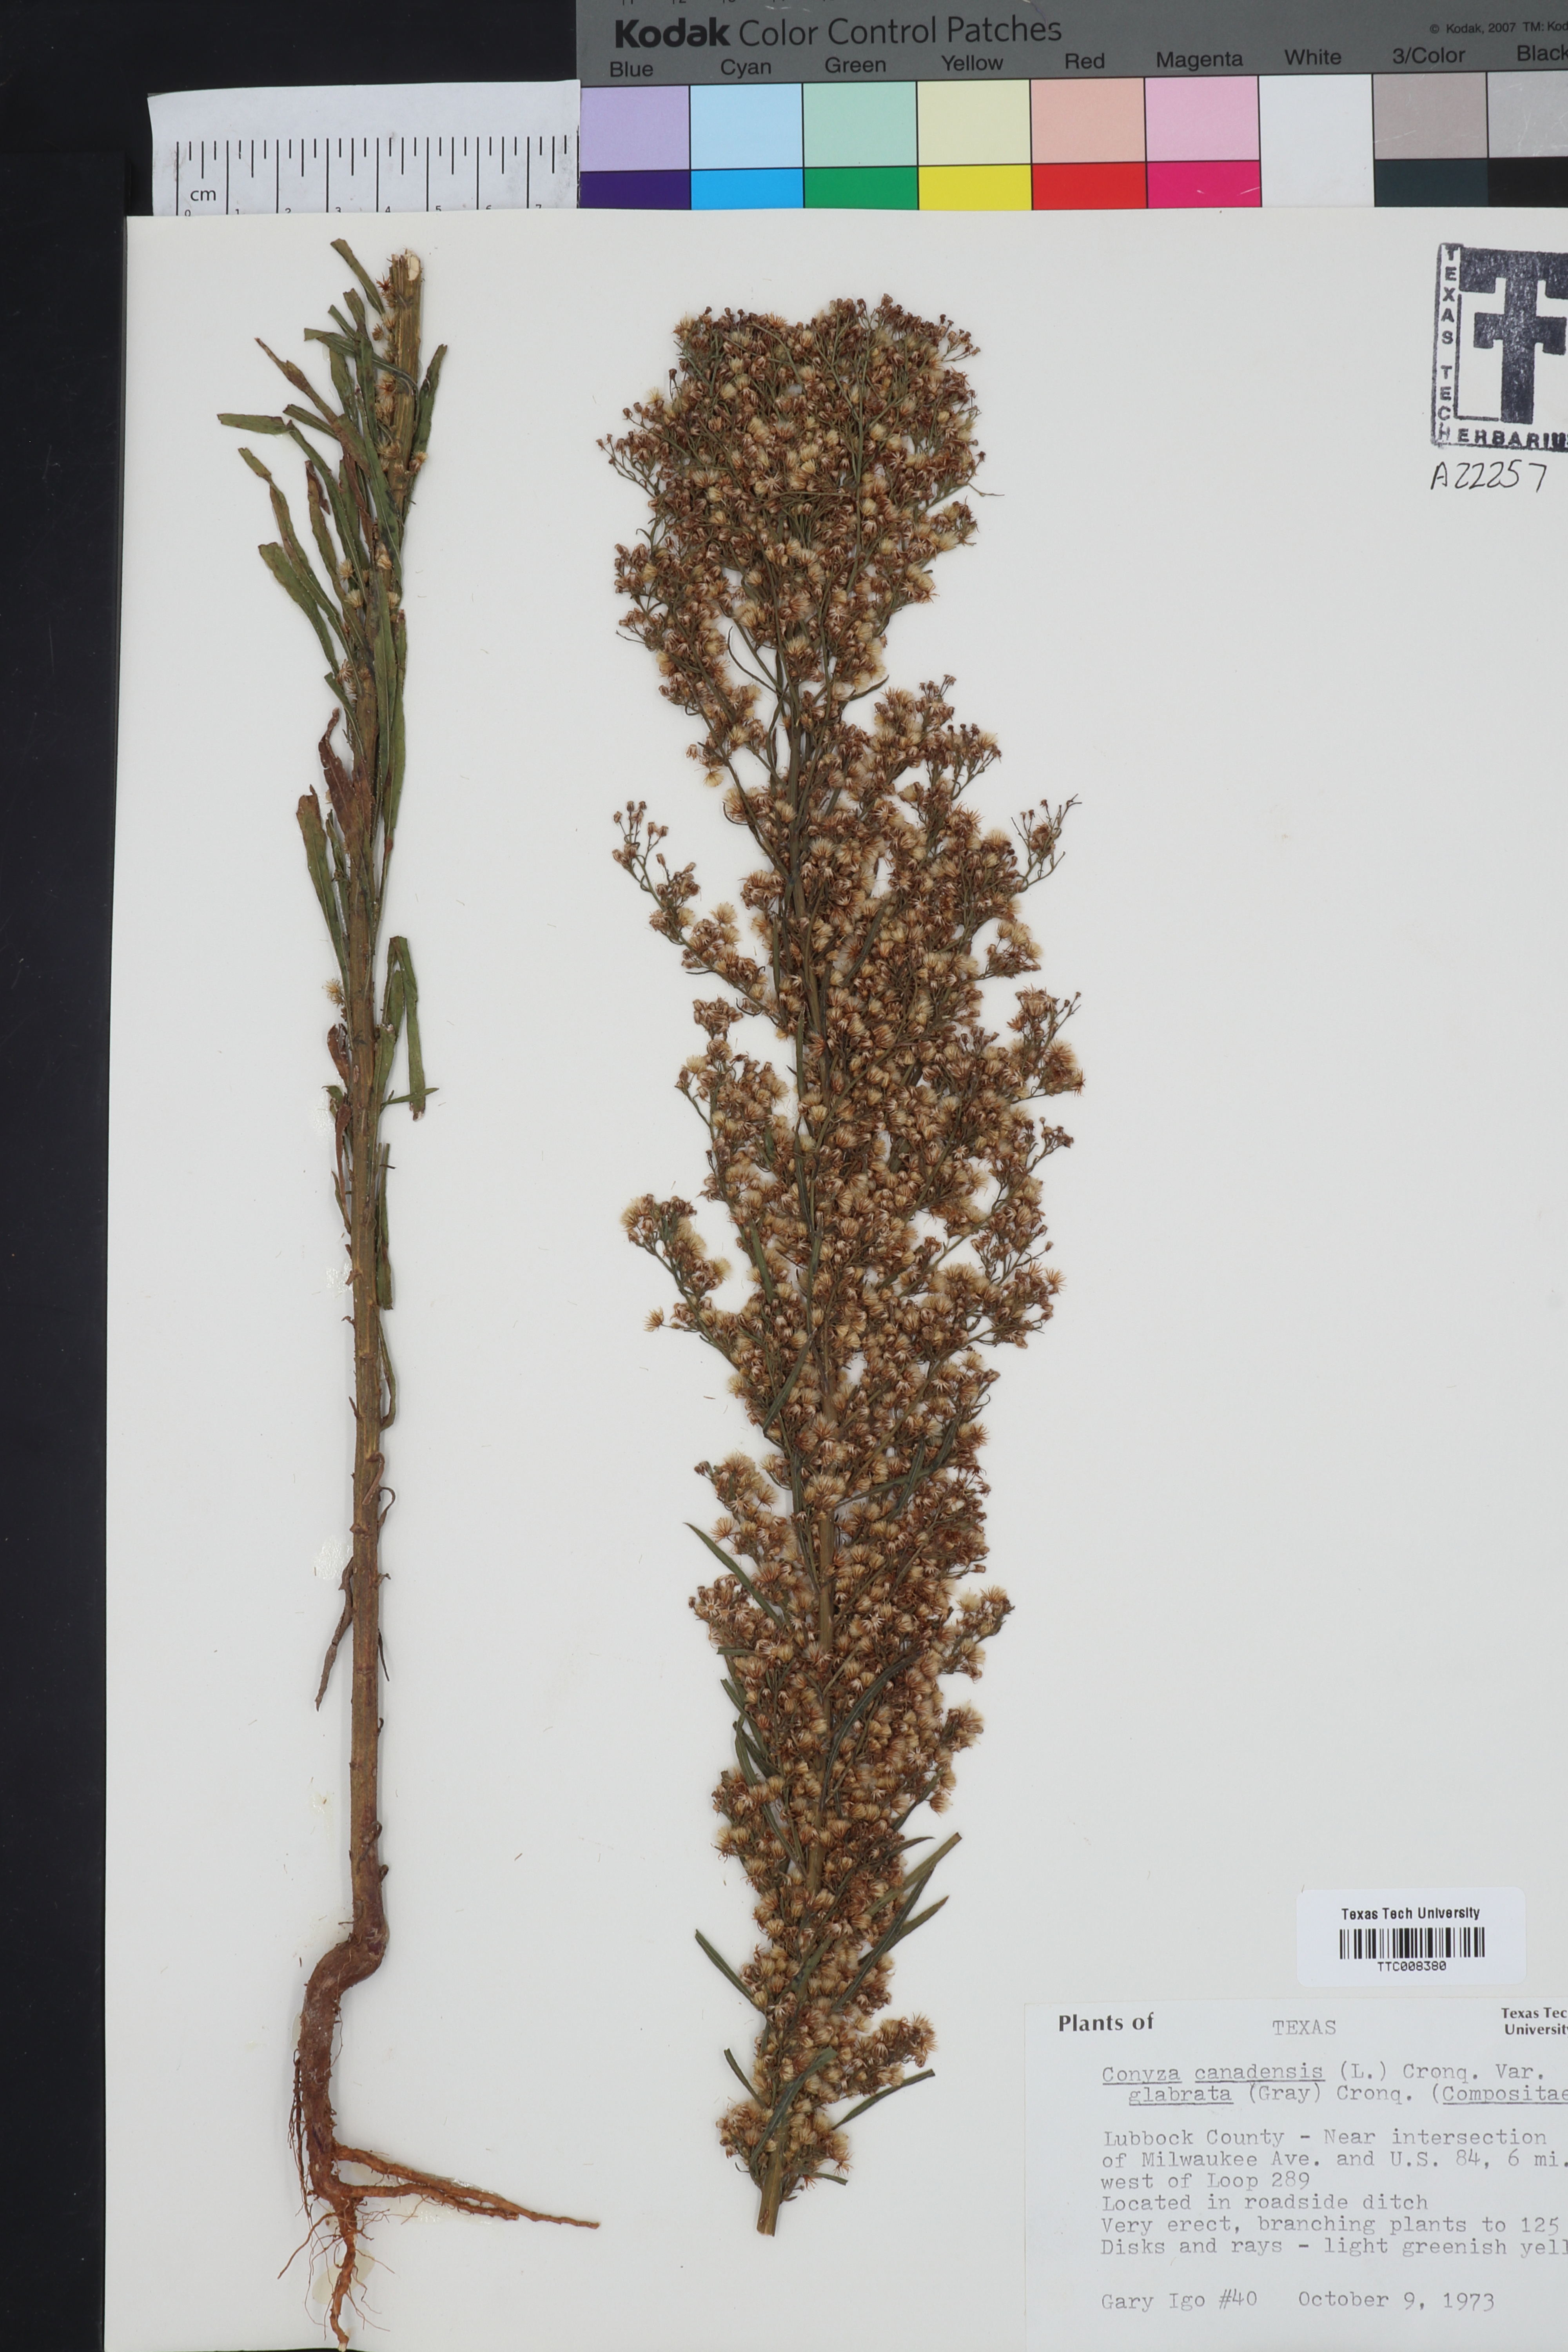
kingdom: Plantae
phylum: Tracheophyta
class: Magnoliopsida
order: Asterales
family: Asteraceae
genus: Erigeron
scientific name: Erigeron canadensis
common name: Canadian fleabane
